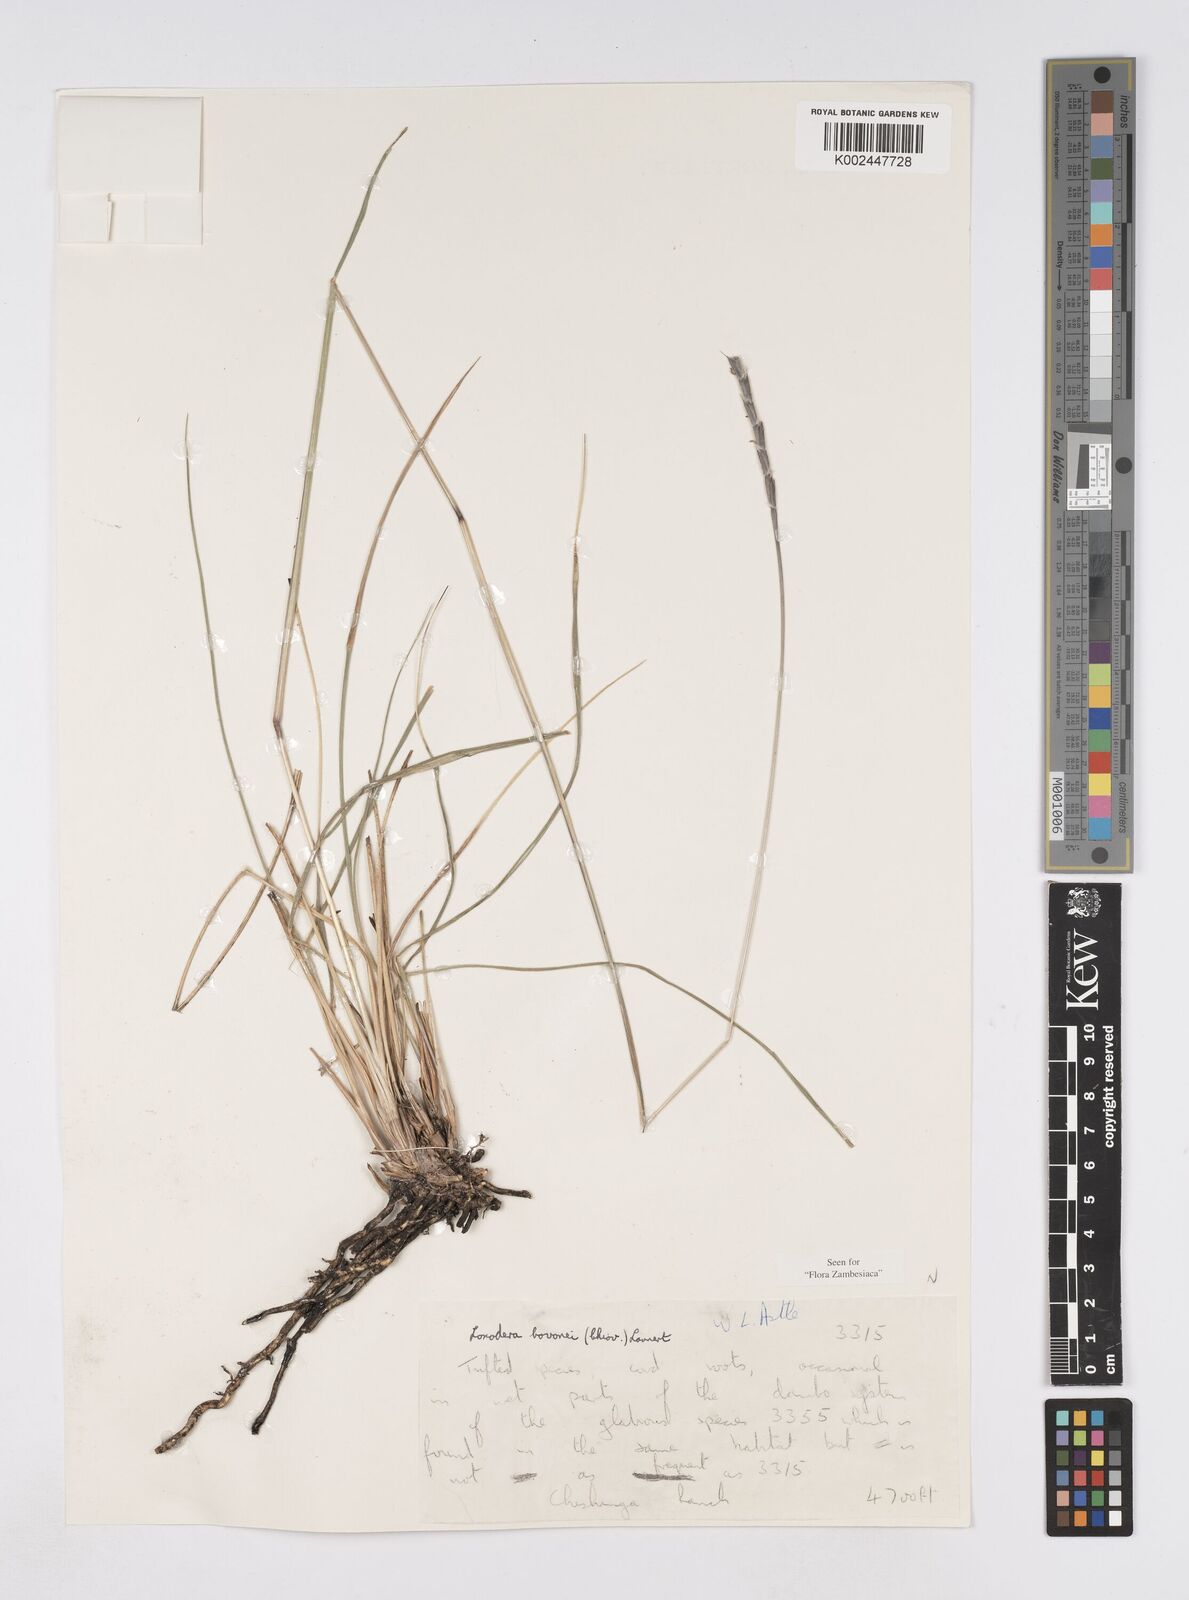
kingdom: Plantae
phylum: Tracheophyta
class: Liliopsida
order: Poales
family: Poaceae
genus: Loxodera
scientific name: Loxodera bovonei
